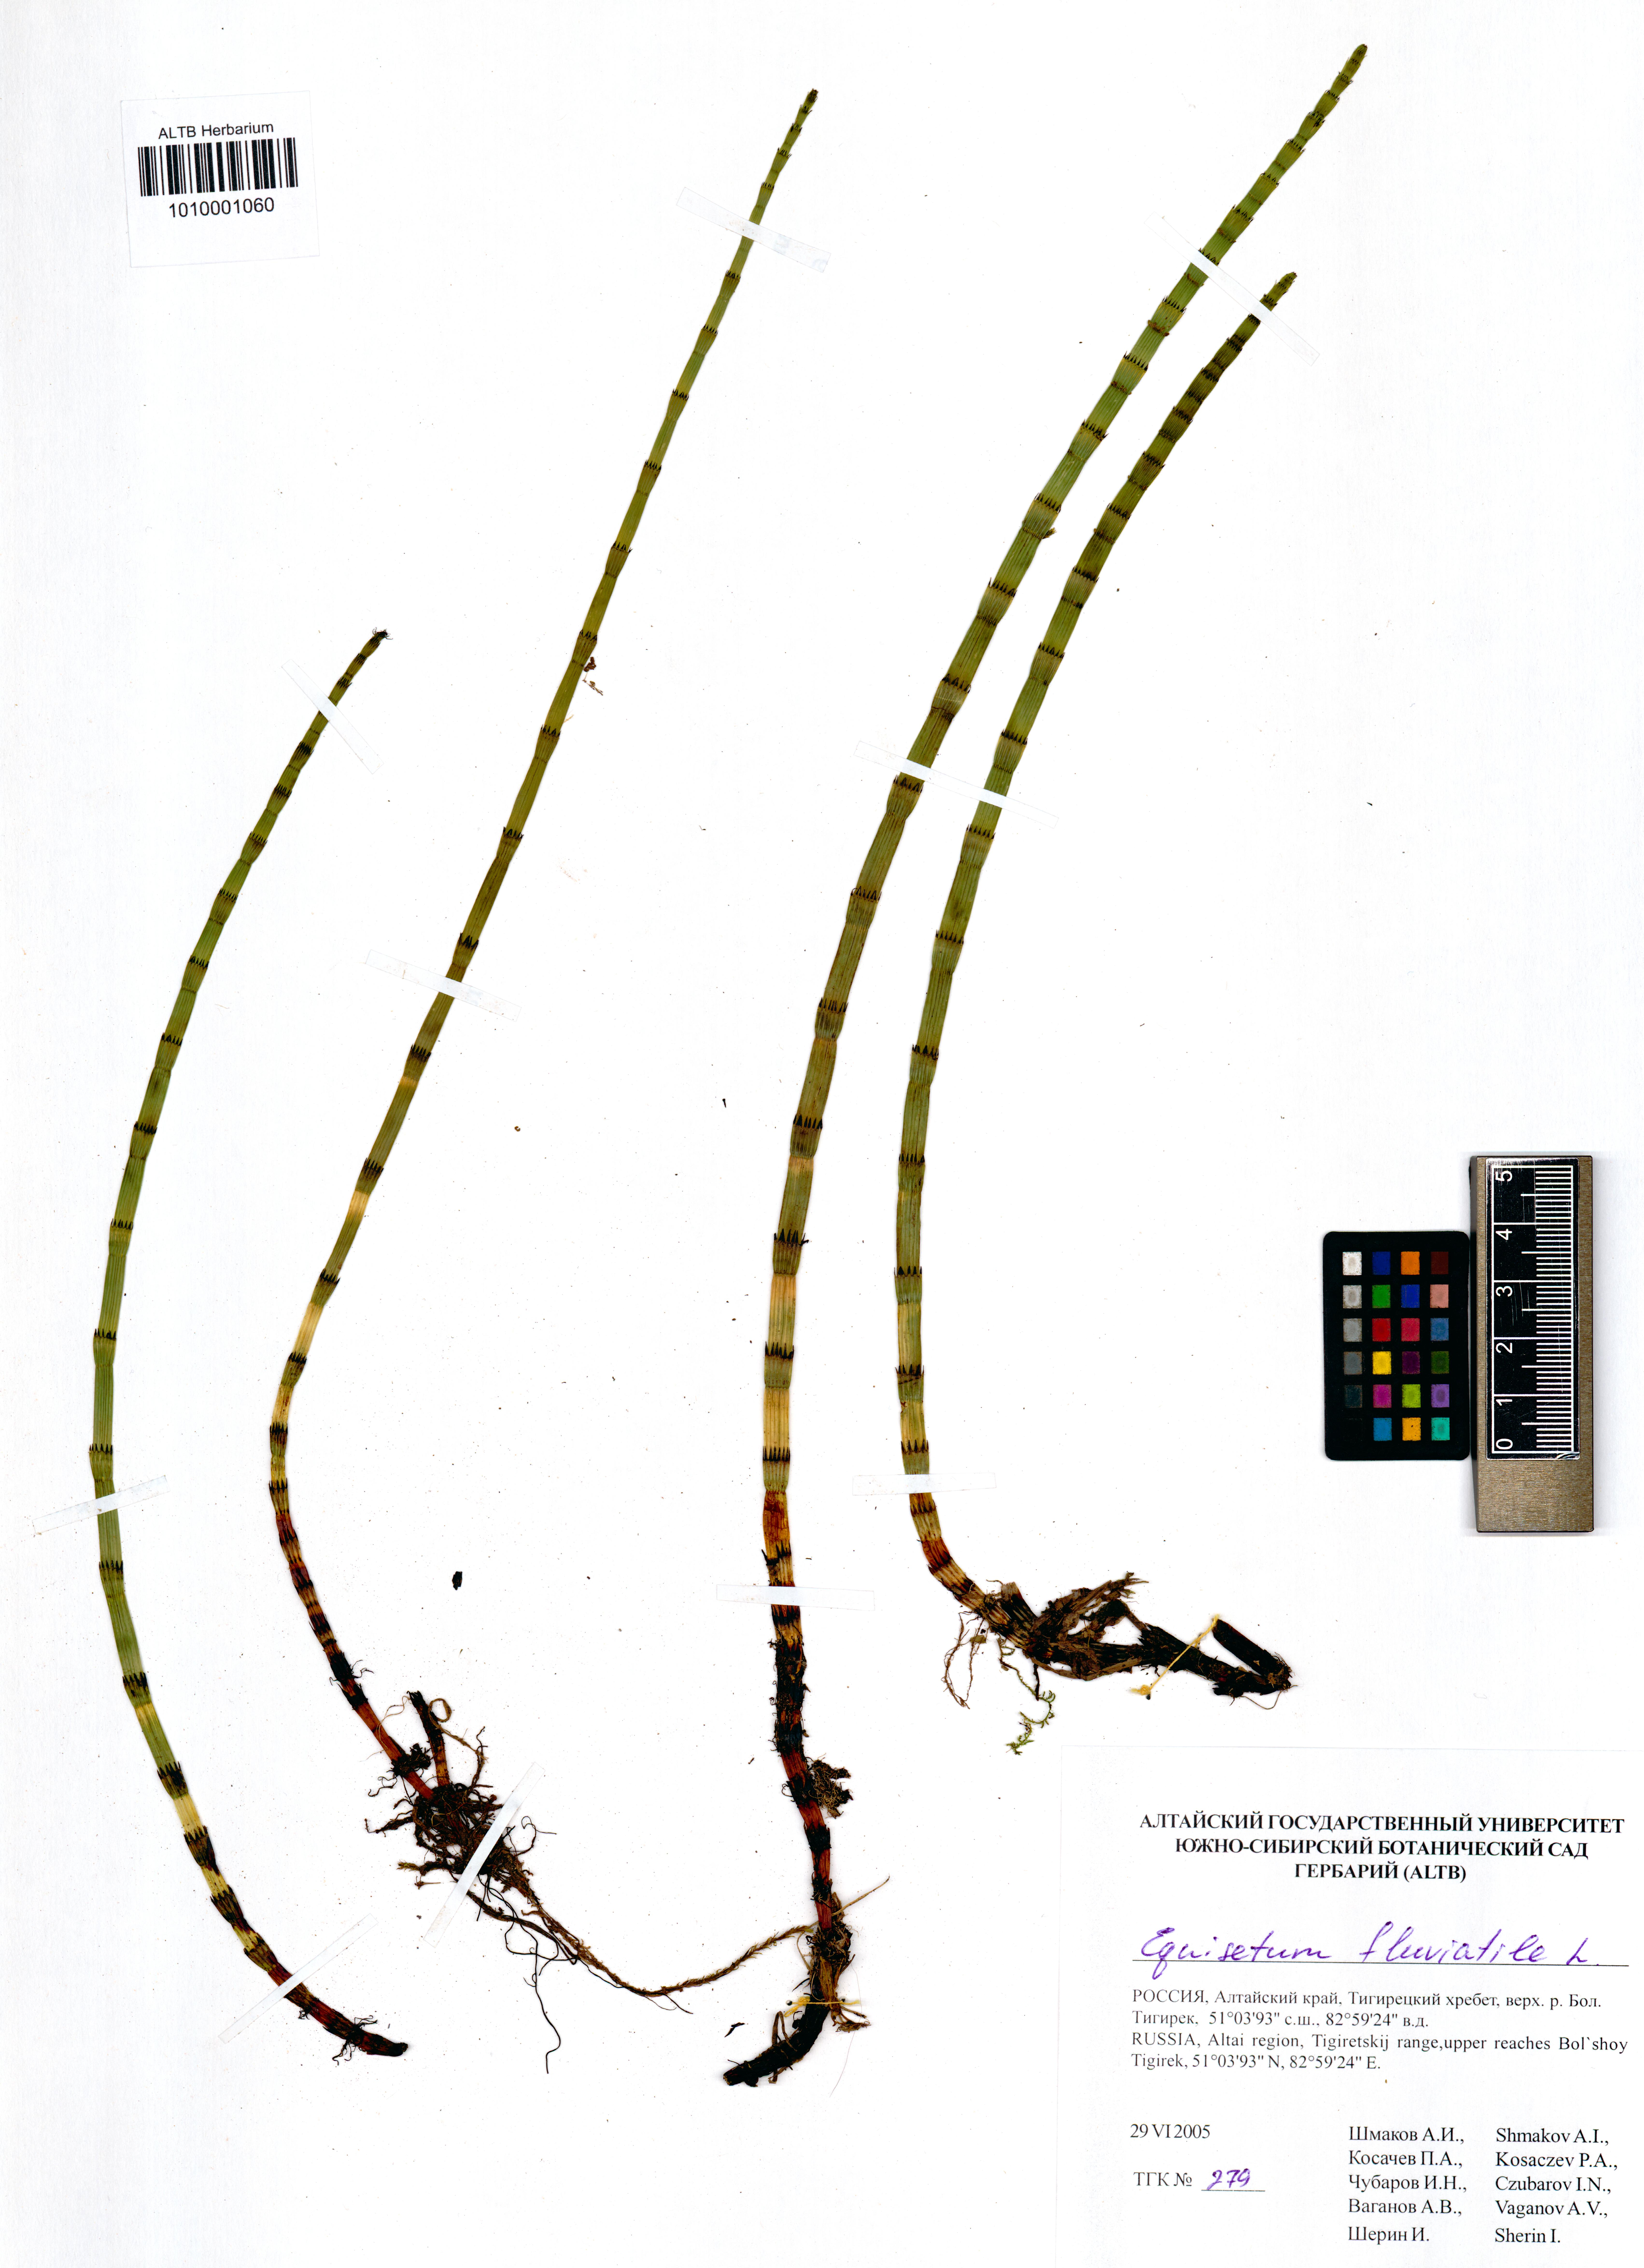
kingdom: Plantae
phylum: Tracheophyta
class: Polypodiopsida
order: Equisetales
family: Equisetaceae
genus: Equisetum
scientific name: Equisetum fluviatile
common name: Water horsetail
